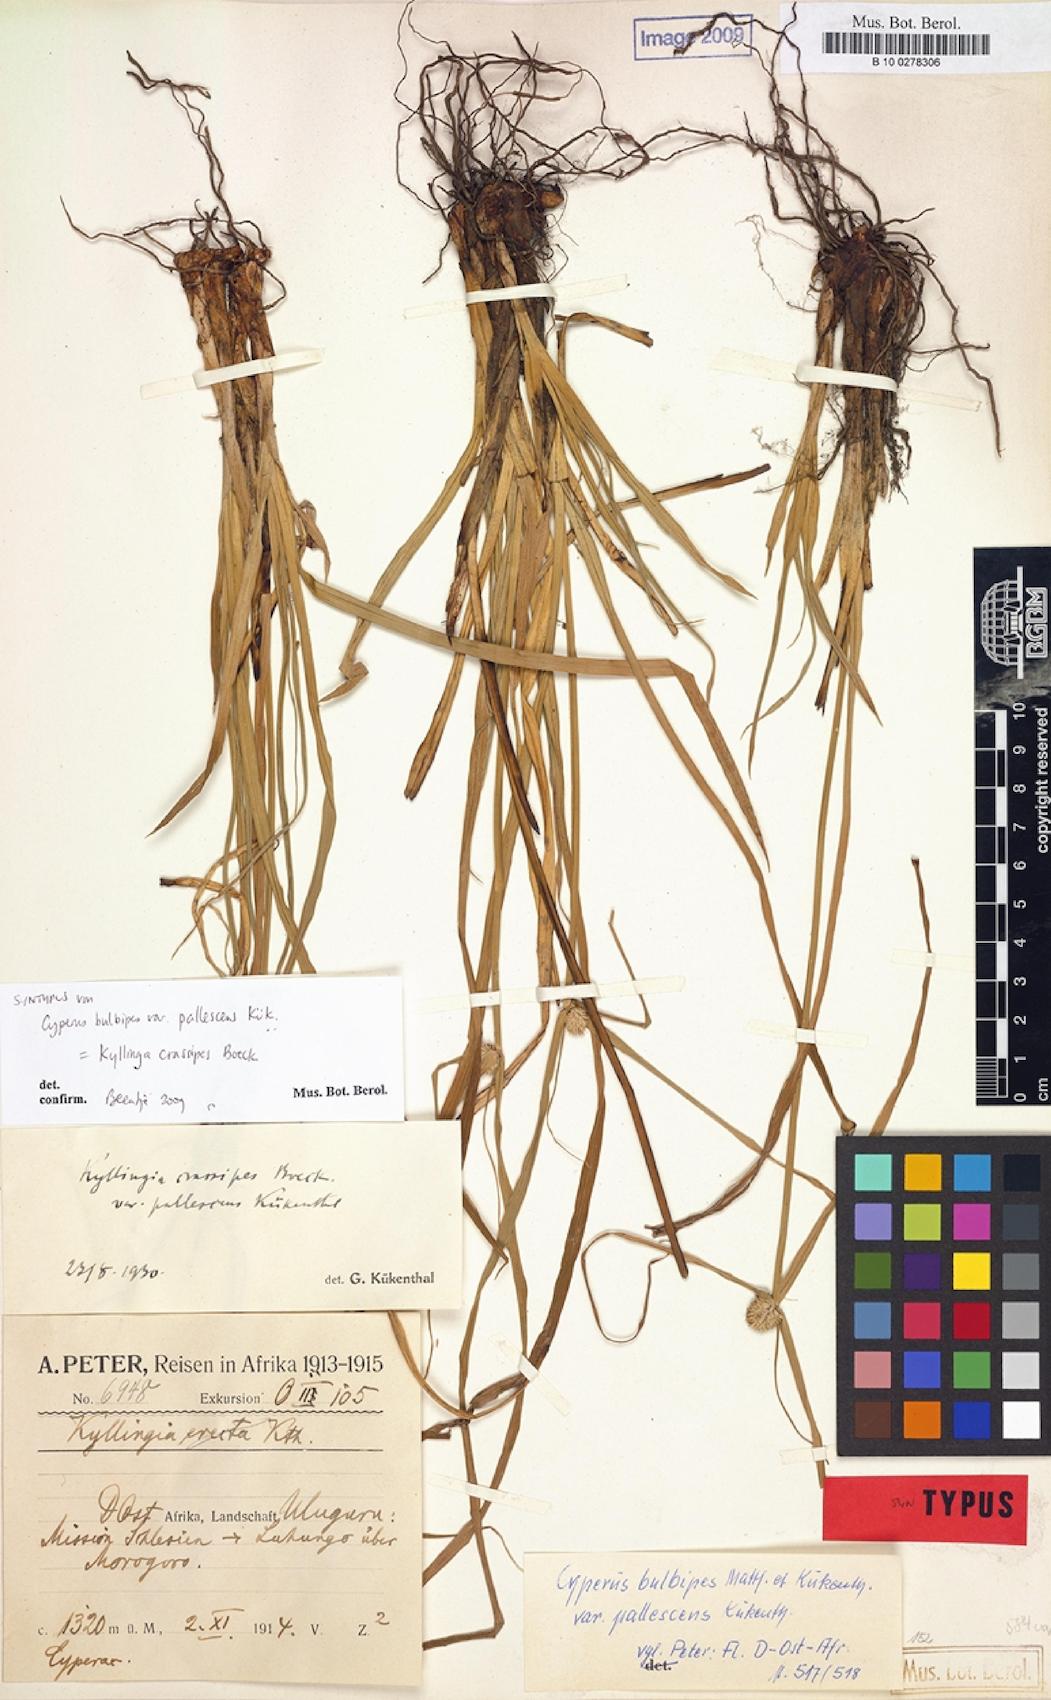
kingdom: Plantae
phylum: Tracheophyta
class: Liliopsida
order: Poales
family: Cyperaceae
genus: Cyperus
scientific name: Cyperus bulbipes
